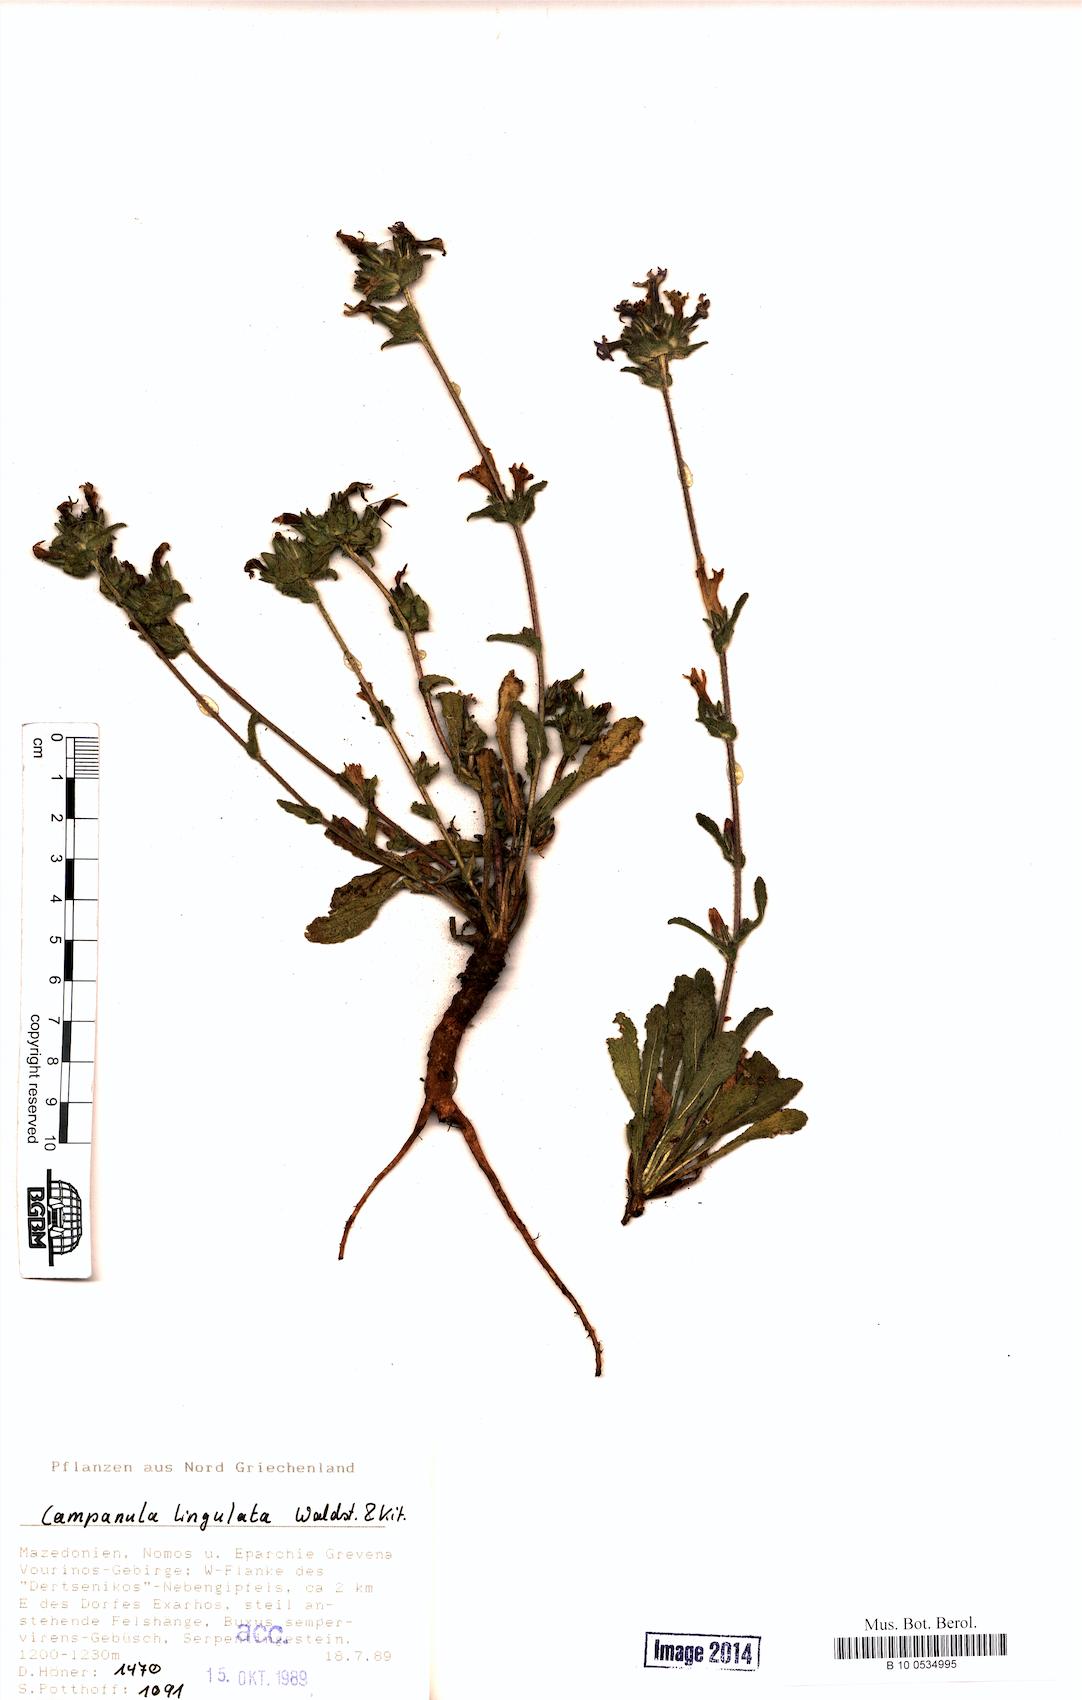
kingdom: Plantae
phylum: Tracheophyta
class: Magnoliopsida
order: Asterales
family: Campanulaceae
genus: Campanula
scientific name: Campanula lingulata
